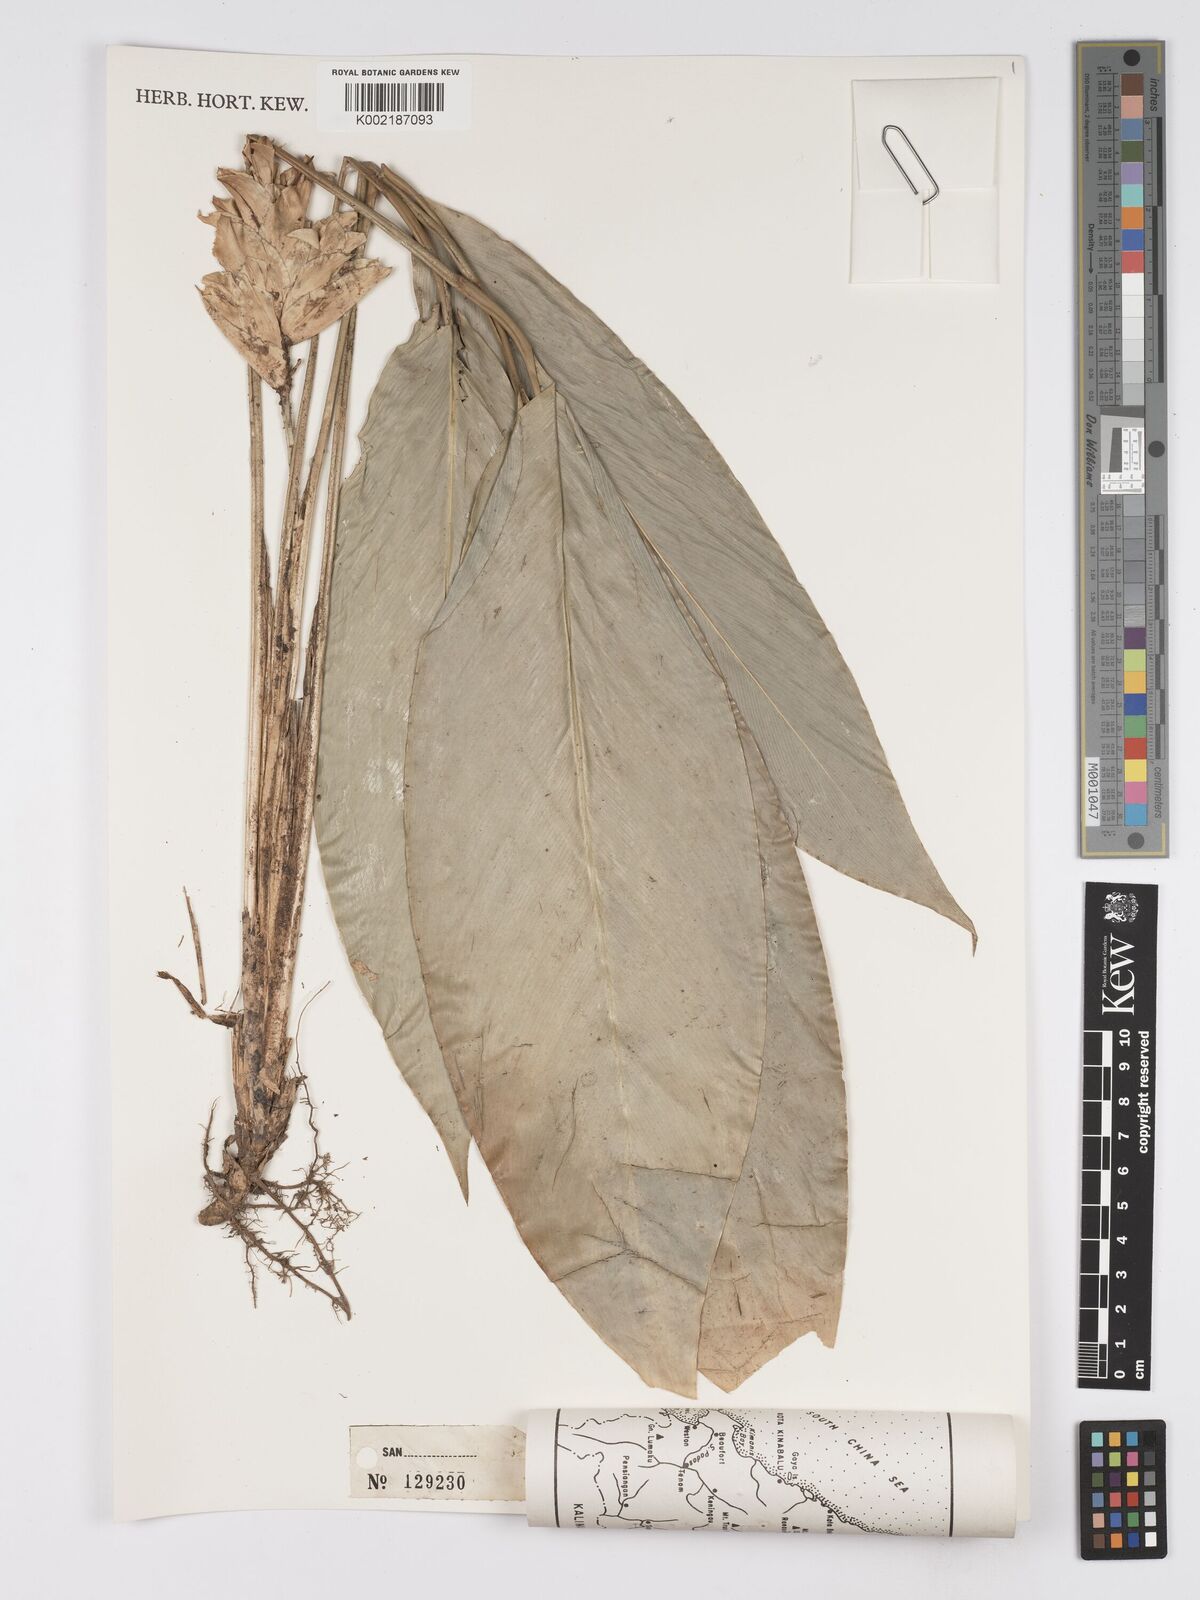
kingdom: Plantae
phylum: Tracheophyta
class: Liliopsida
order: Zingiberales
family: Marantaceae
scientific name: Marantaceae
